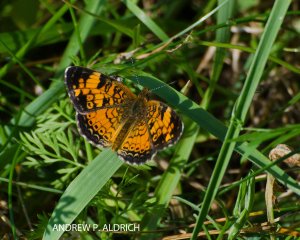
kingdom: Animalia
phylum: Arthropoda
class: Insecta
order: Lepidoptera
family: Nymphalidae
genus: Phyciodes
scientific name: Phyciodes
